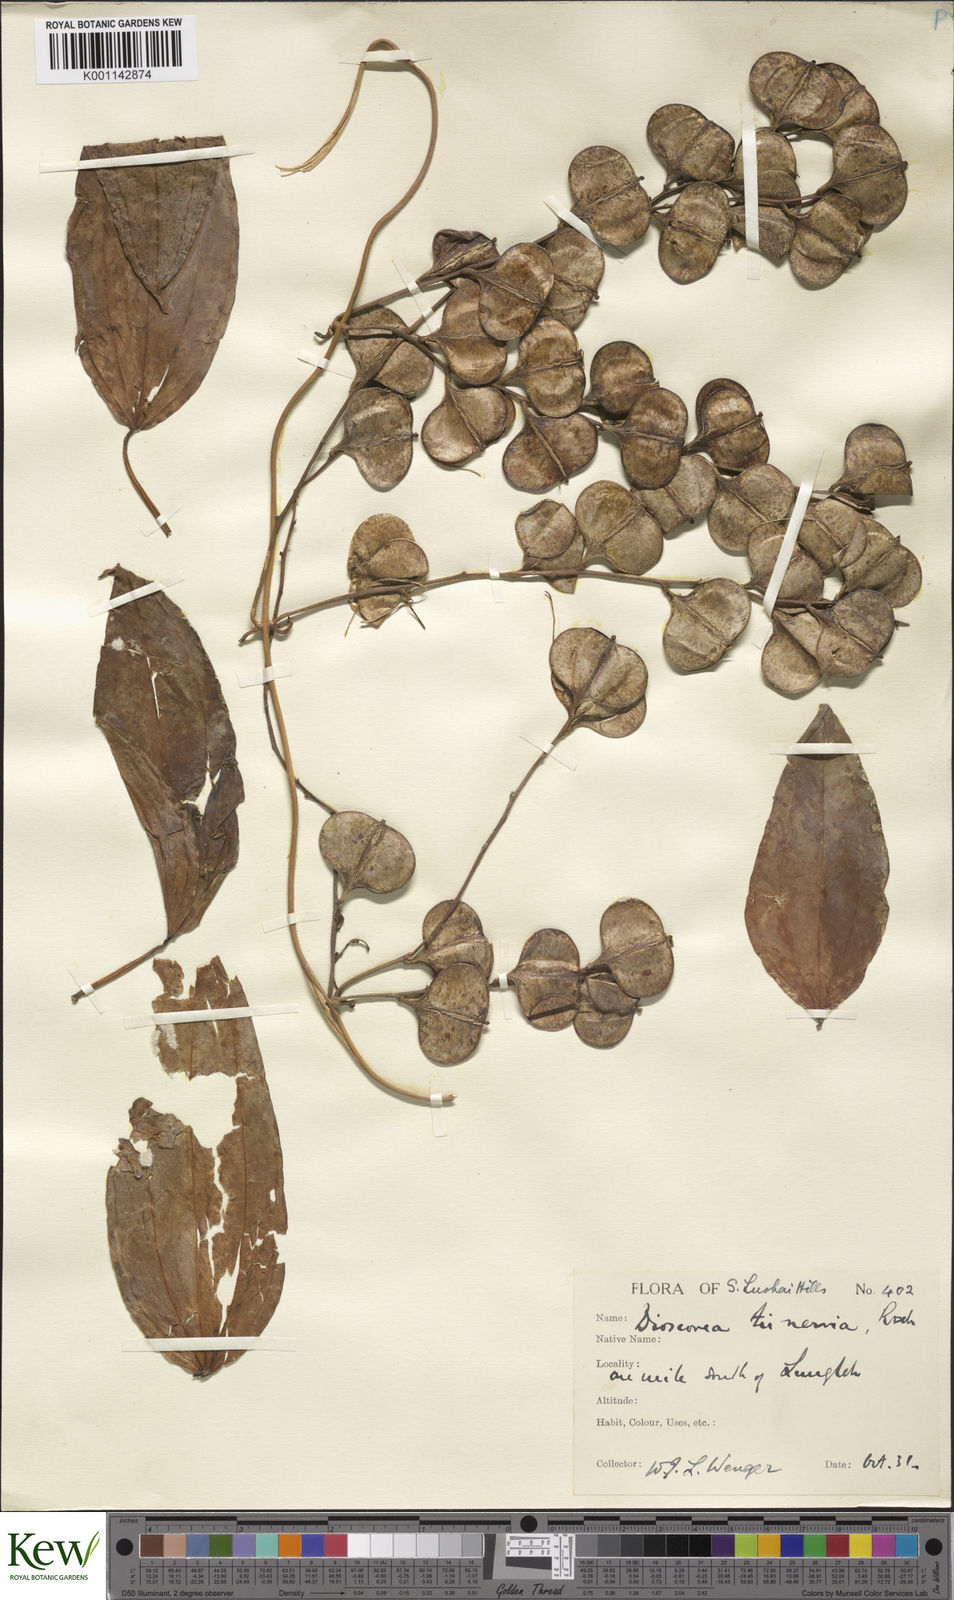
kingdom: Plantae
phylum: Tracheophyta
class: Liliopsida
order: Dioscoreales
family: Dioscoreaceae
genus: Dioscorea
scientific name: Dioscorea oppositifolia
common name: Chinese yam
